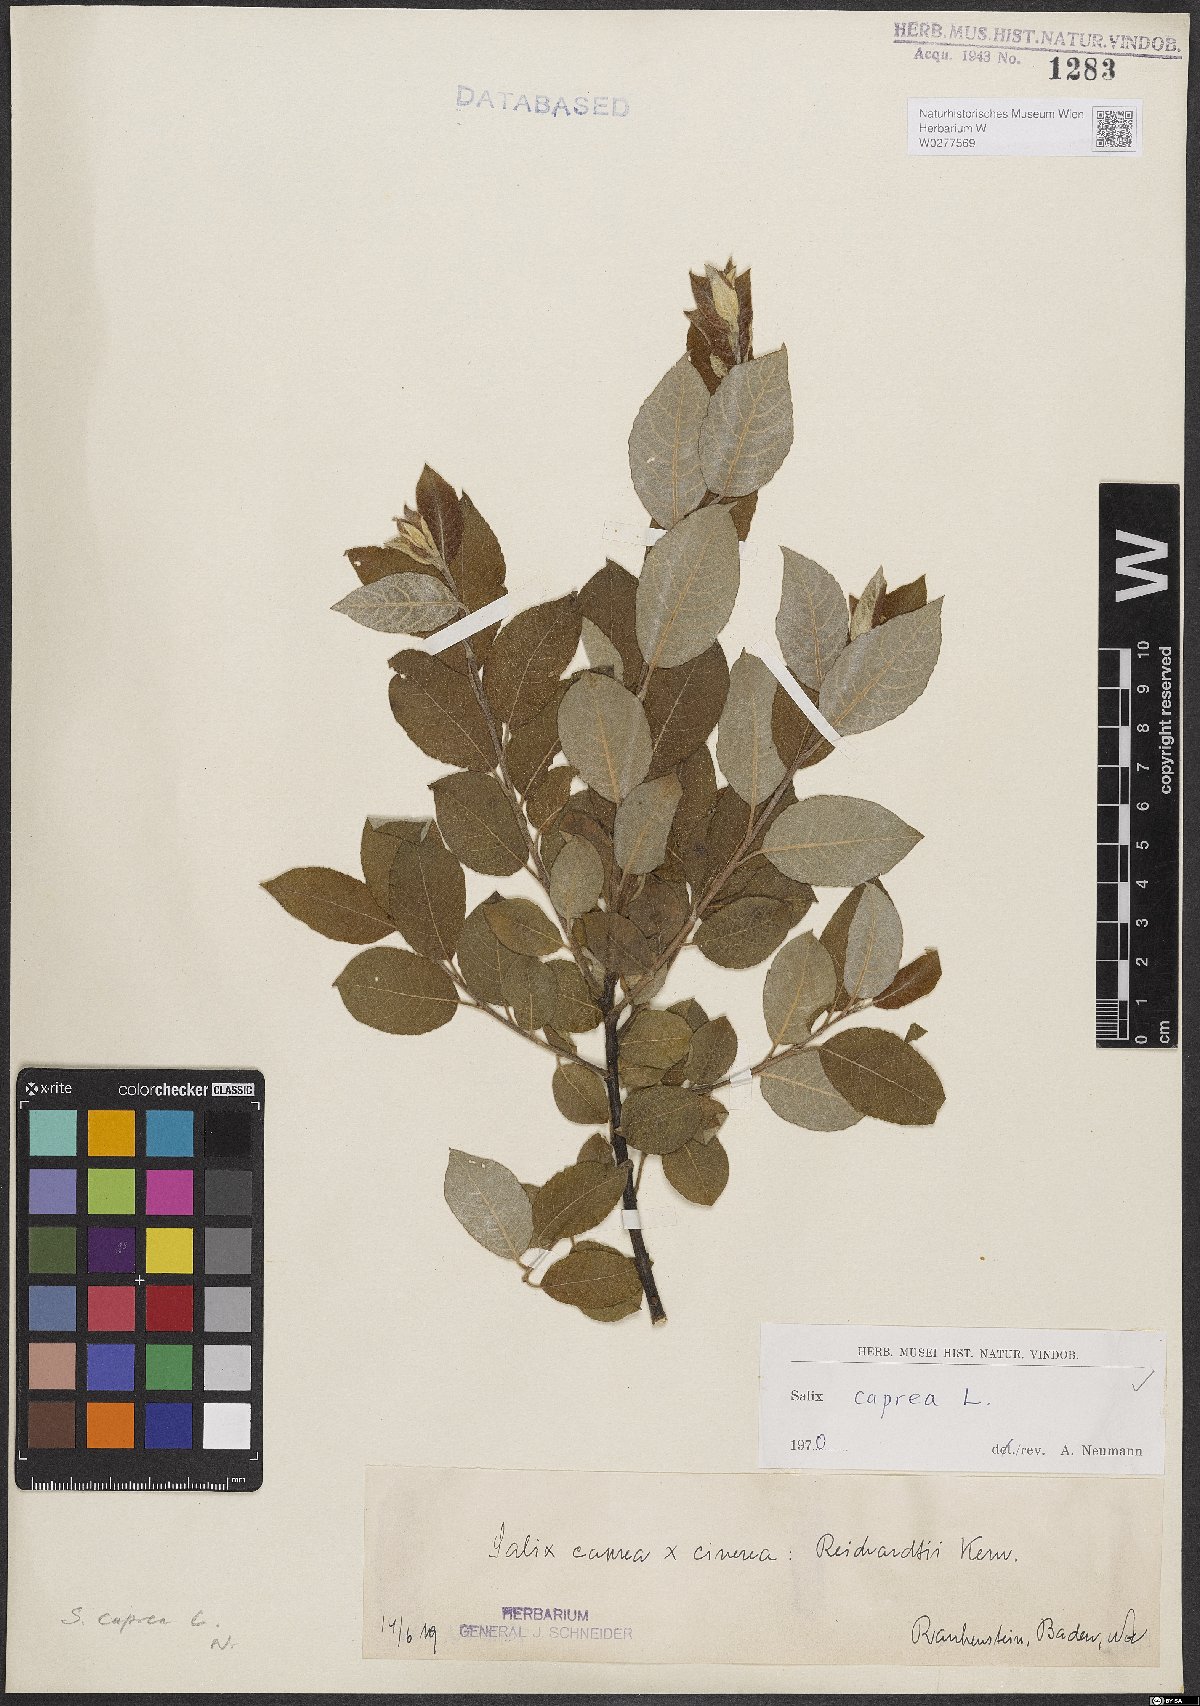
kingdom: Plantae
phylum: Tracheophyta
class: Magnoliopsida
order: Malpighiales
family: Salicaceae
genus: Salix
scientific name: Salix caprea
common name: Goat willow
